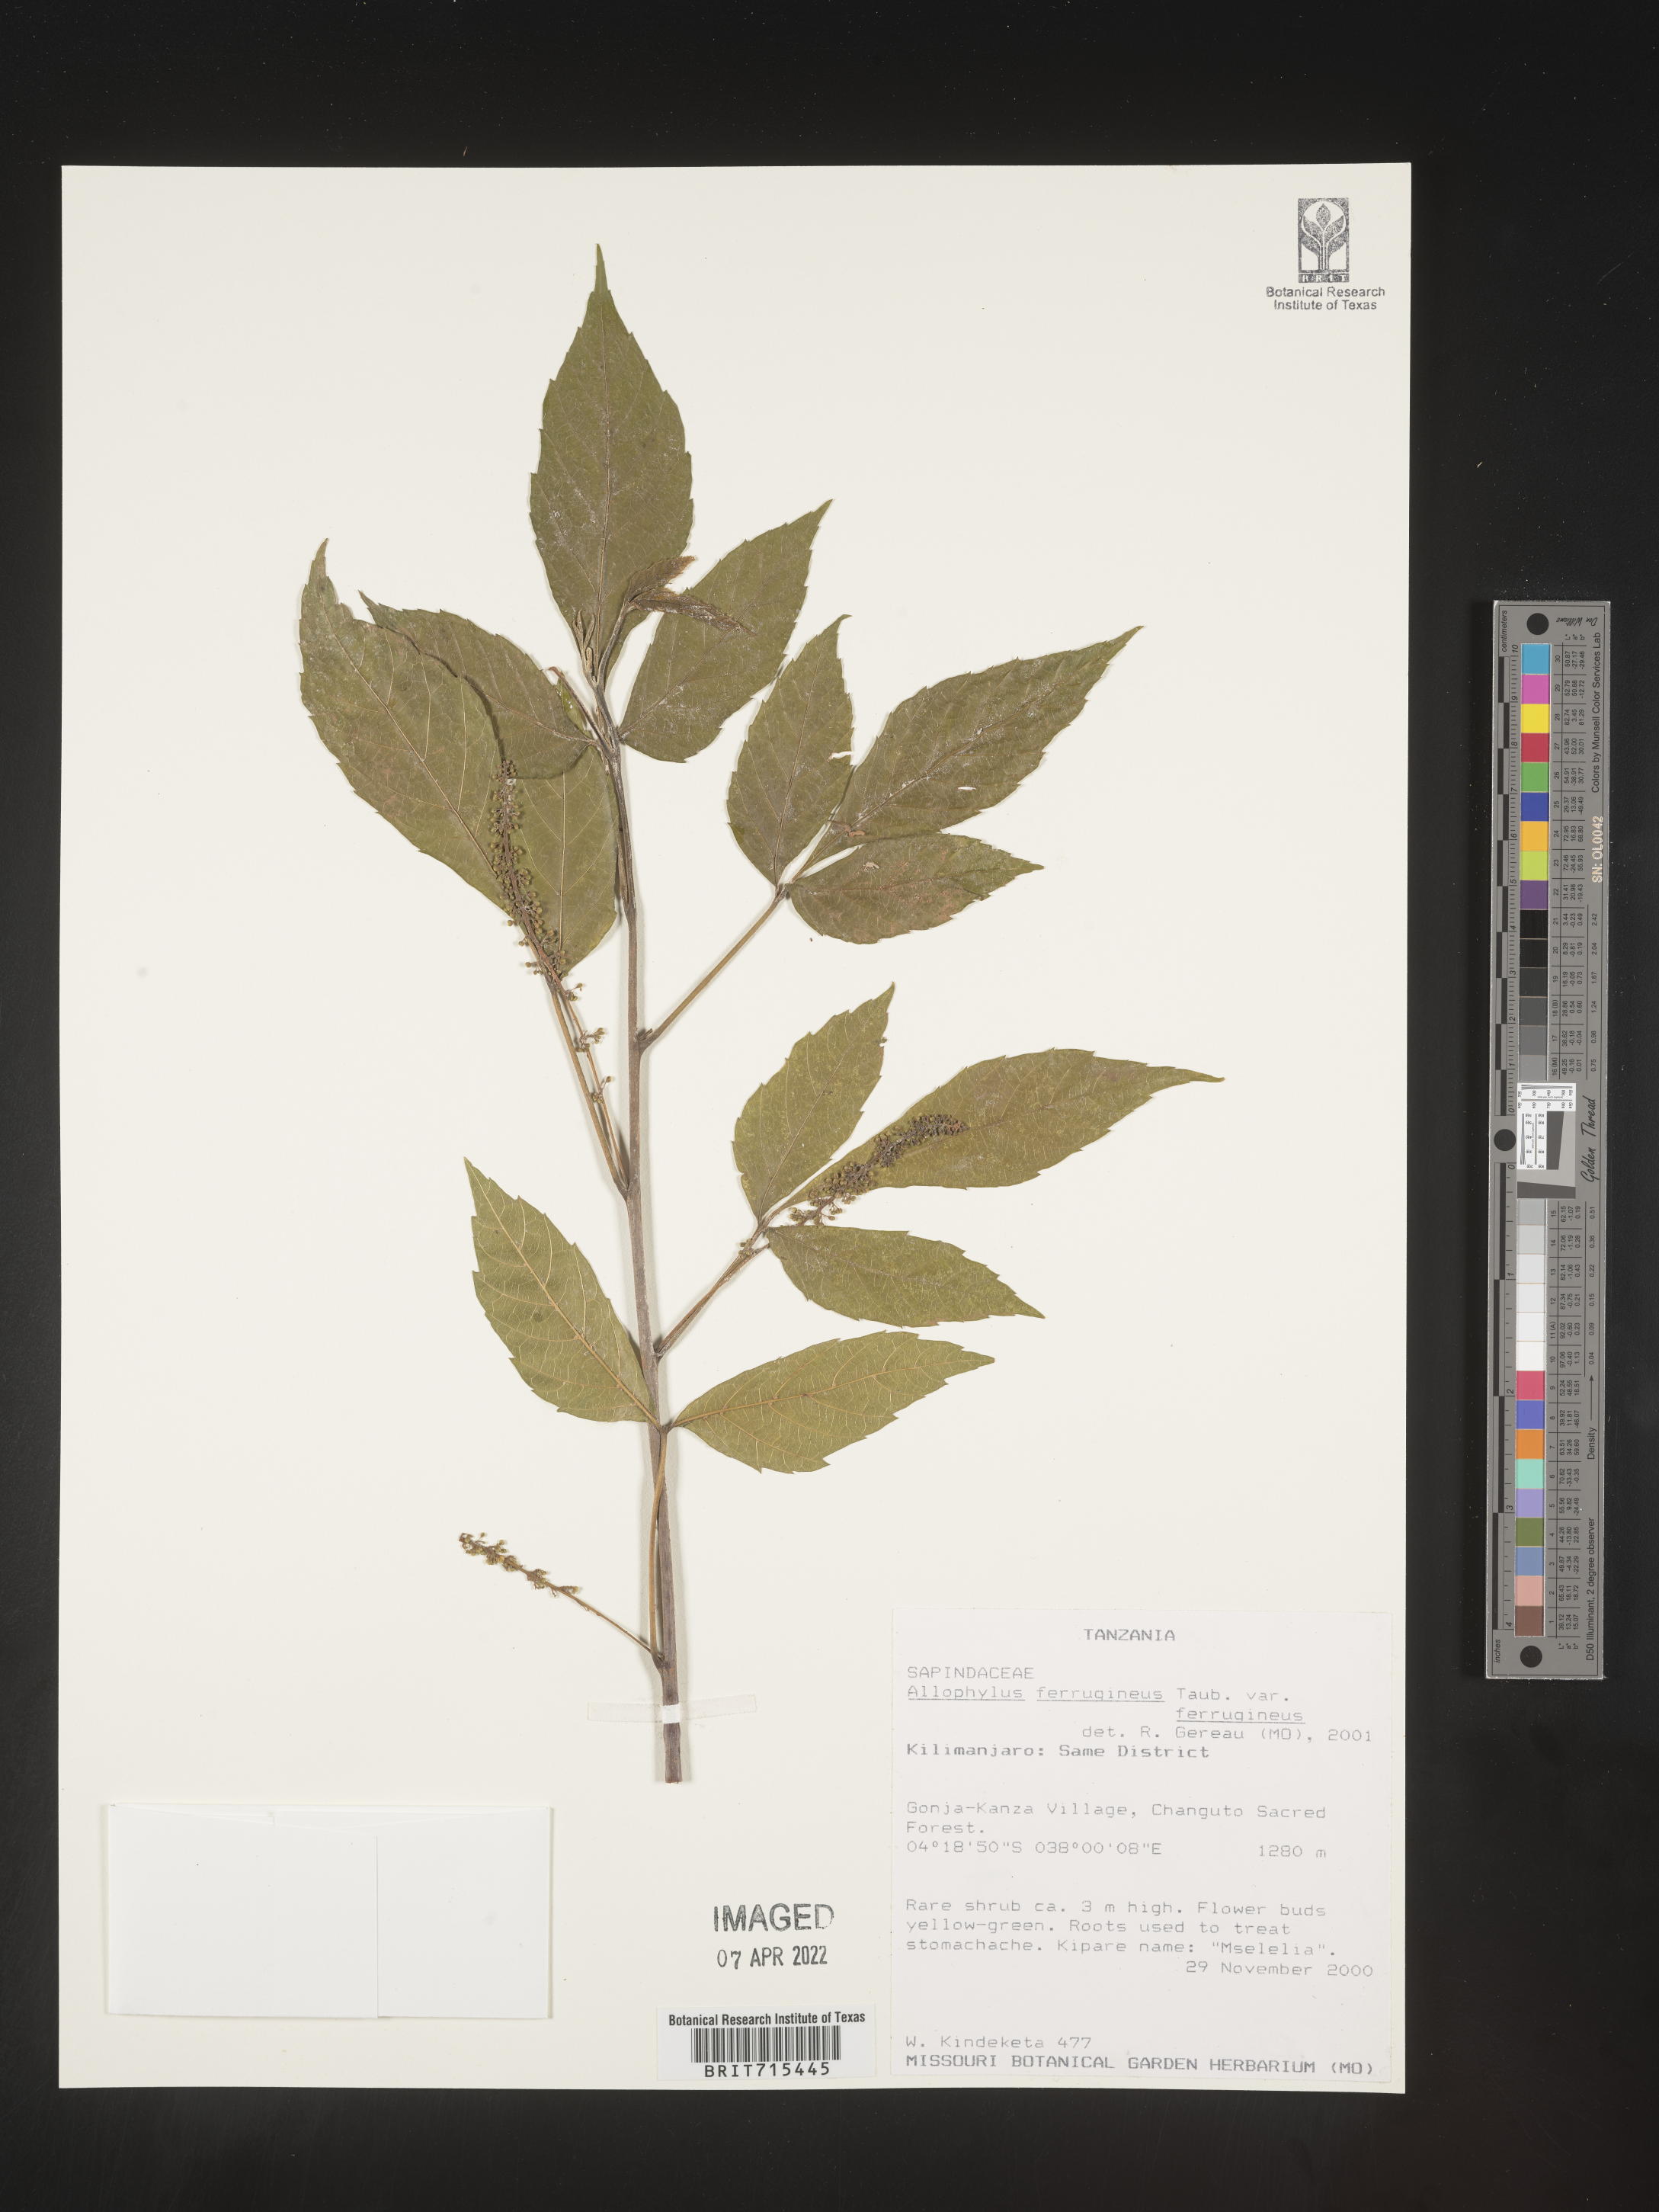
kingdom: Plantae
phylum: Tracheophyta
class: Magnoliopsida
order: Sapindales
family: Sapindaceae
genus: Allophylus
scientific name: Allophylus ferrugineus
